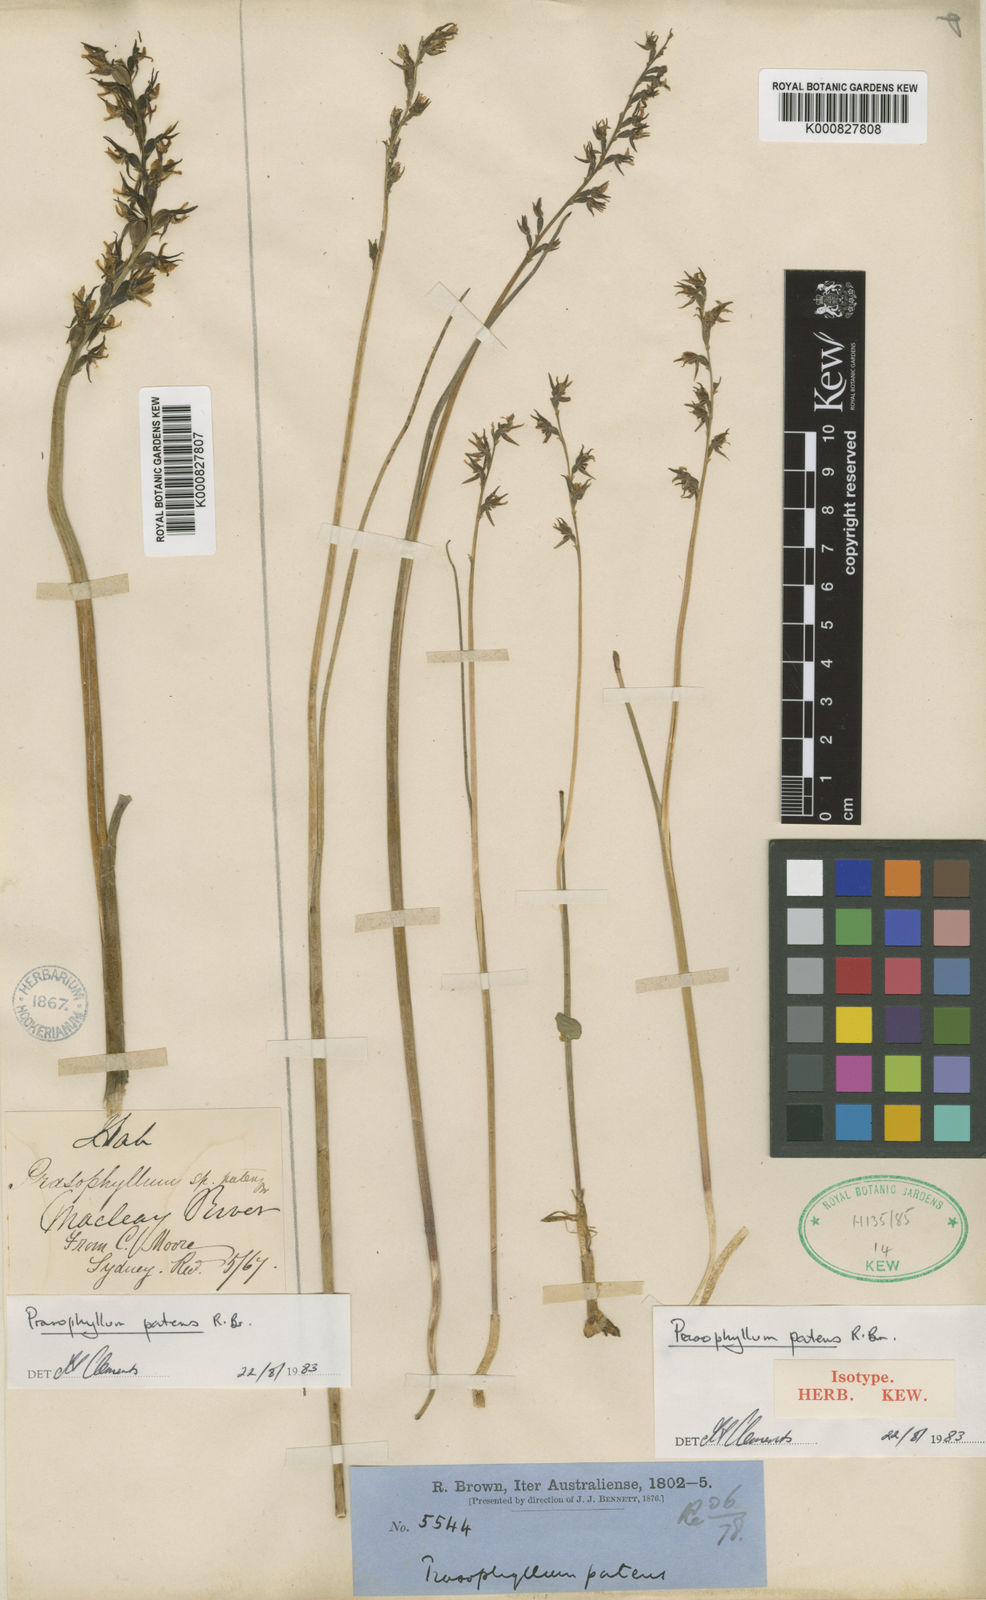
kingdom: Plantae
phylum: Tracheophyta
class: Liliopsida
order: Asparagales
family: Orchidaceae
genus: Prasophyllum
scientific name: Prasophyllum patens
